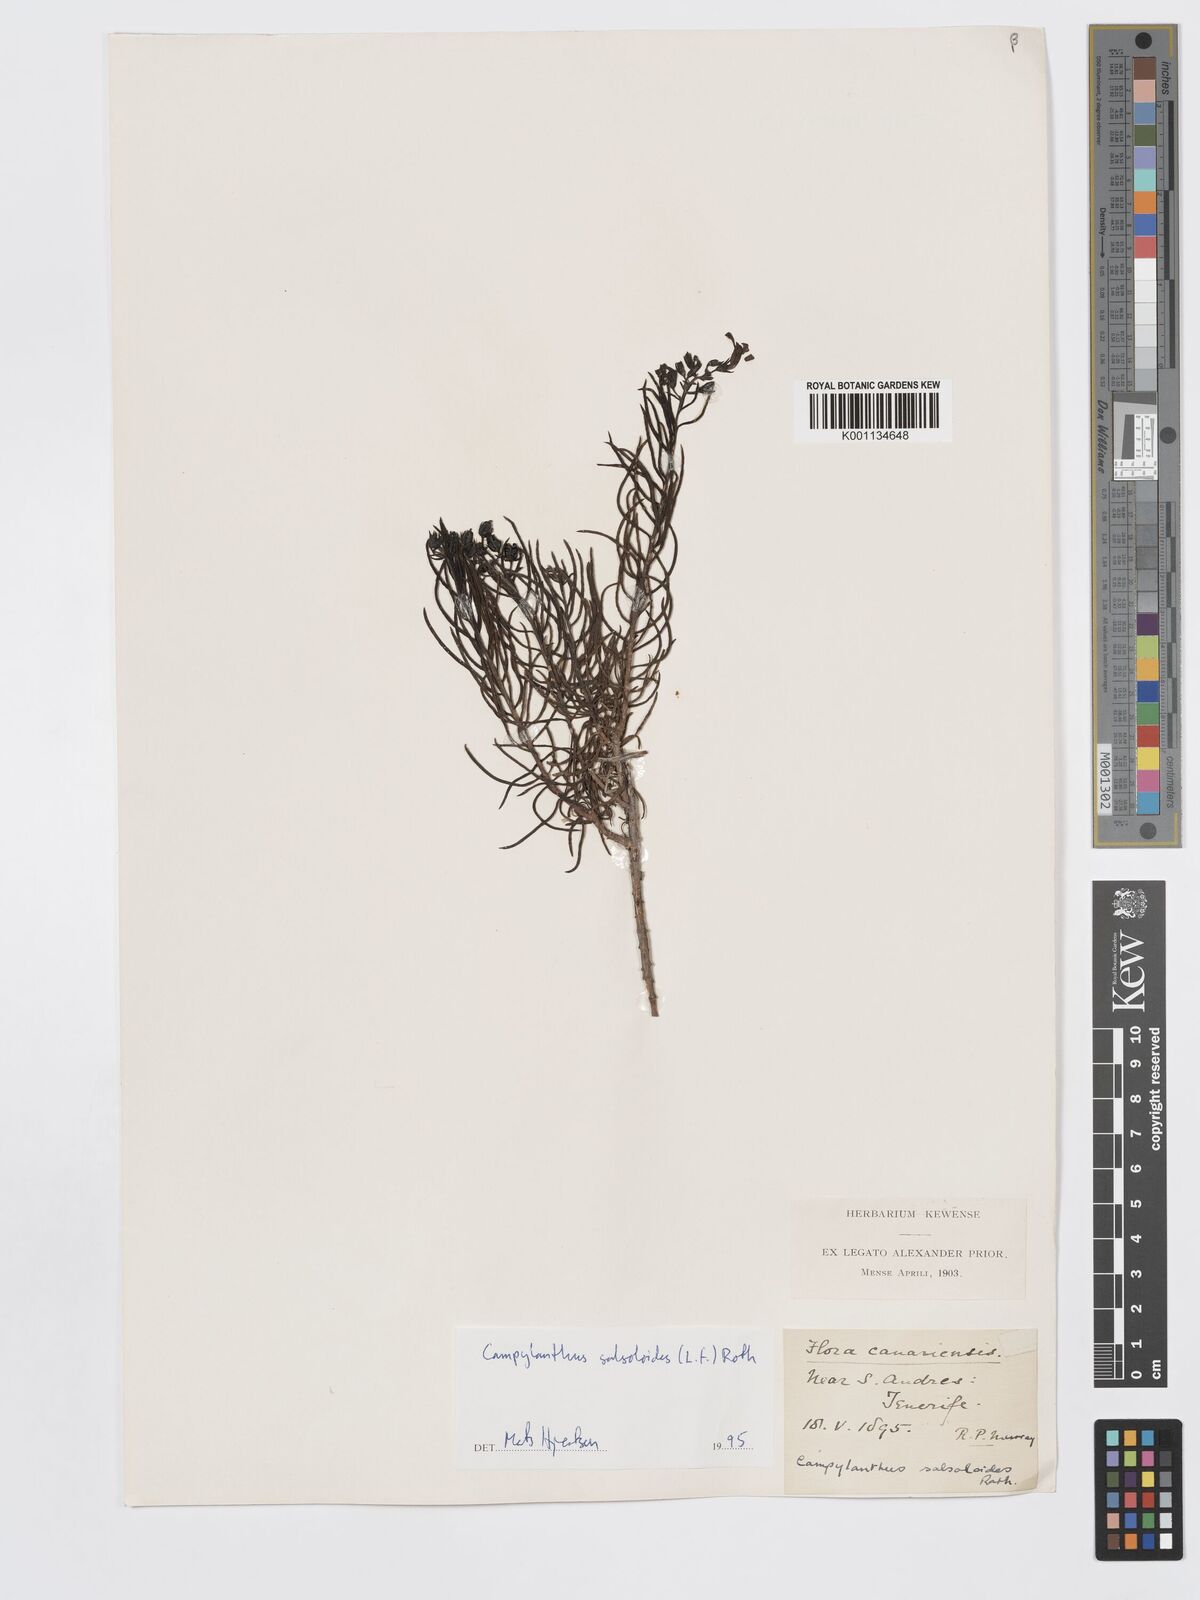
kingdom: Plantae
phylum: Tracheophyta
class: Magnoliopsida
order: Lamiales
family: Plantaginaceae
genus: Campylanthus
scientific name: Campylanthus
